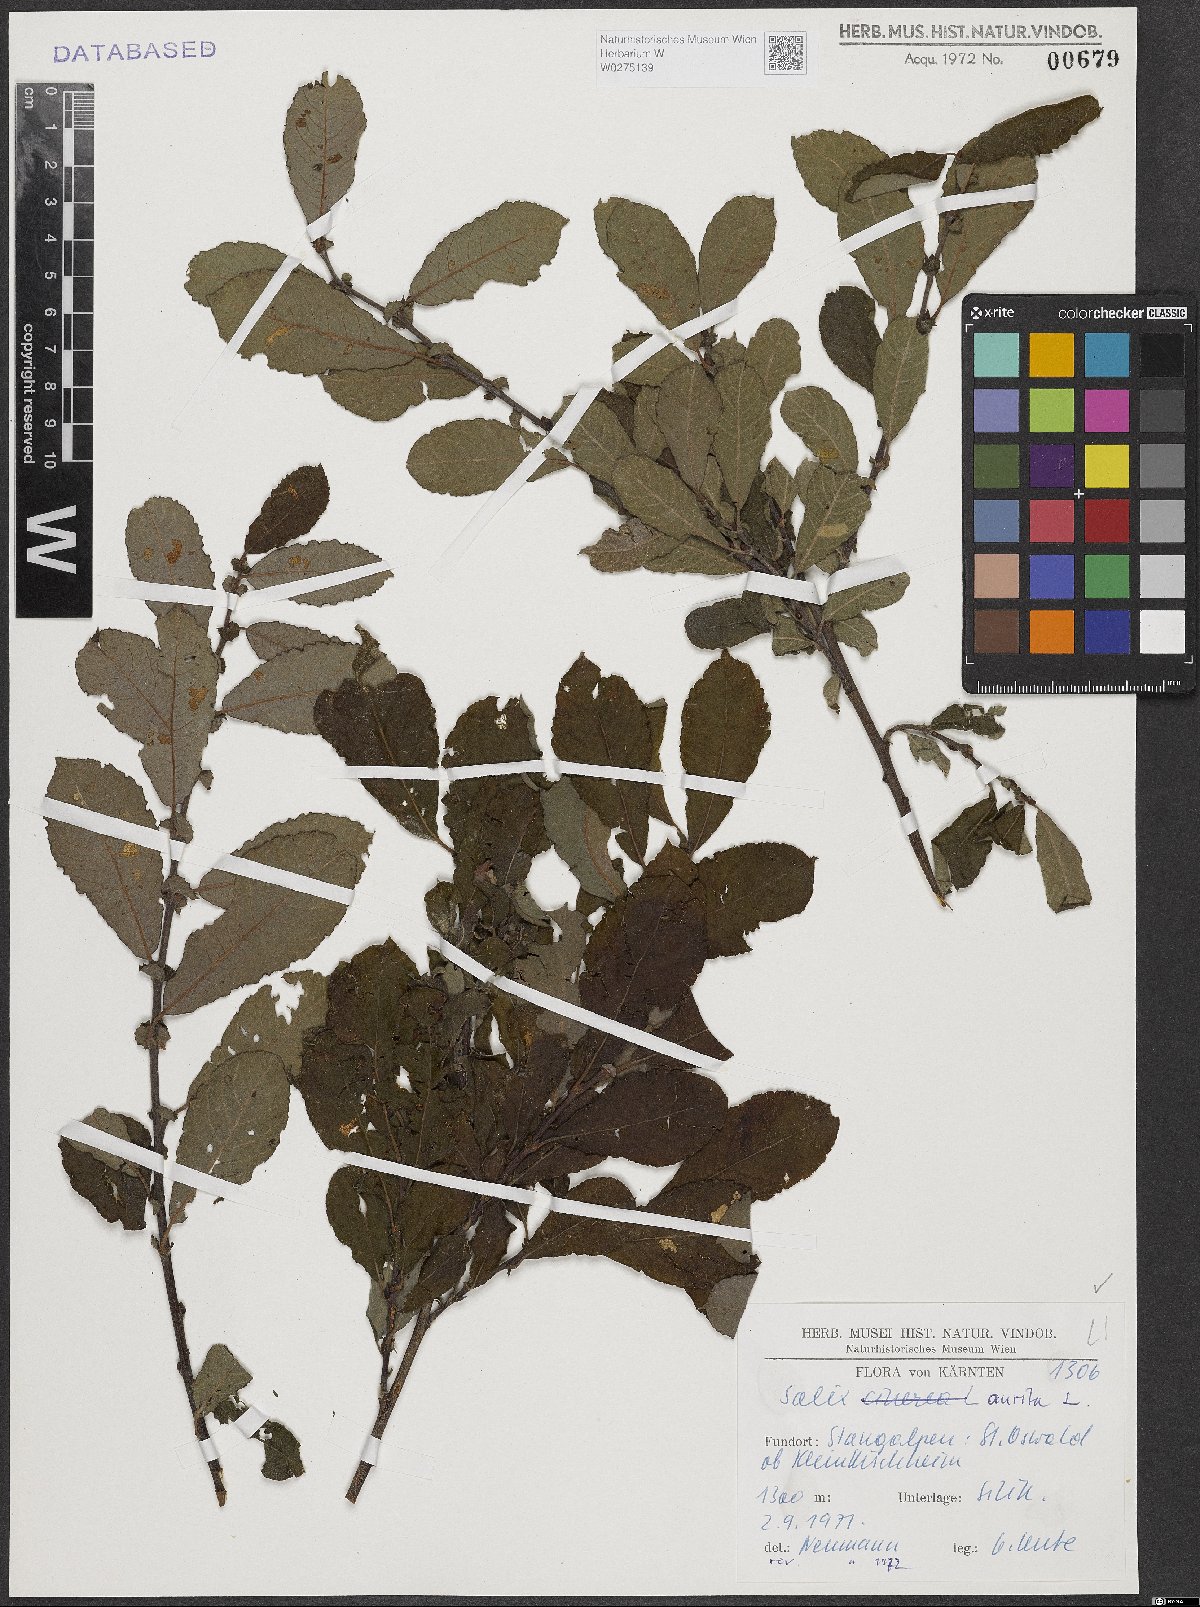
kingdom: Plantae
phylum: Tracheophyta
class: Magnoliopsida
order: Malpighiales
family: Salicaceae
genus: Salix
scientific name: Salix aurita
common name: Eared willow
